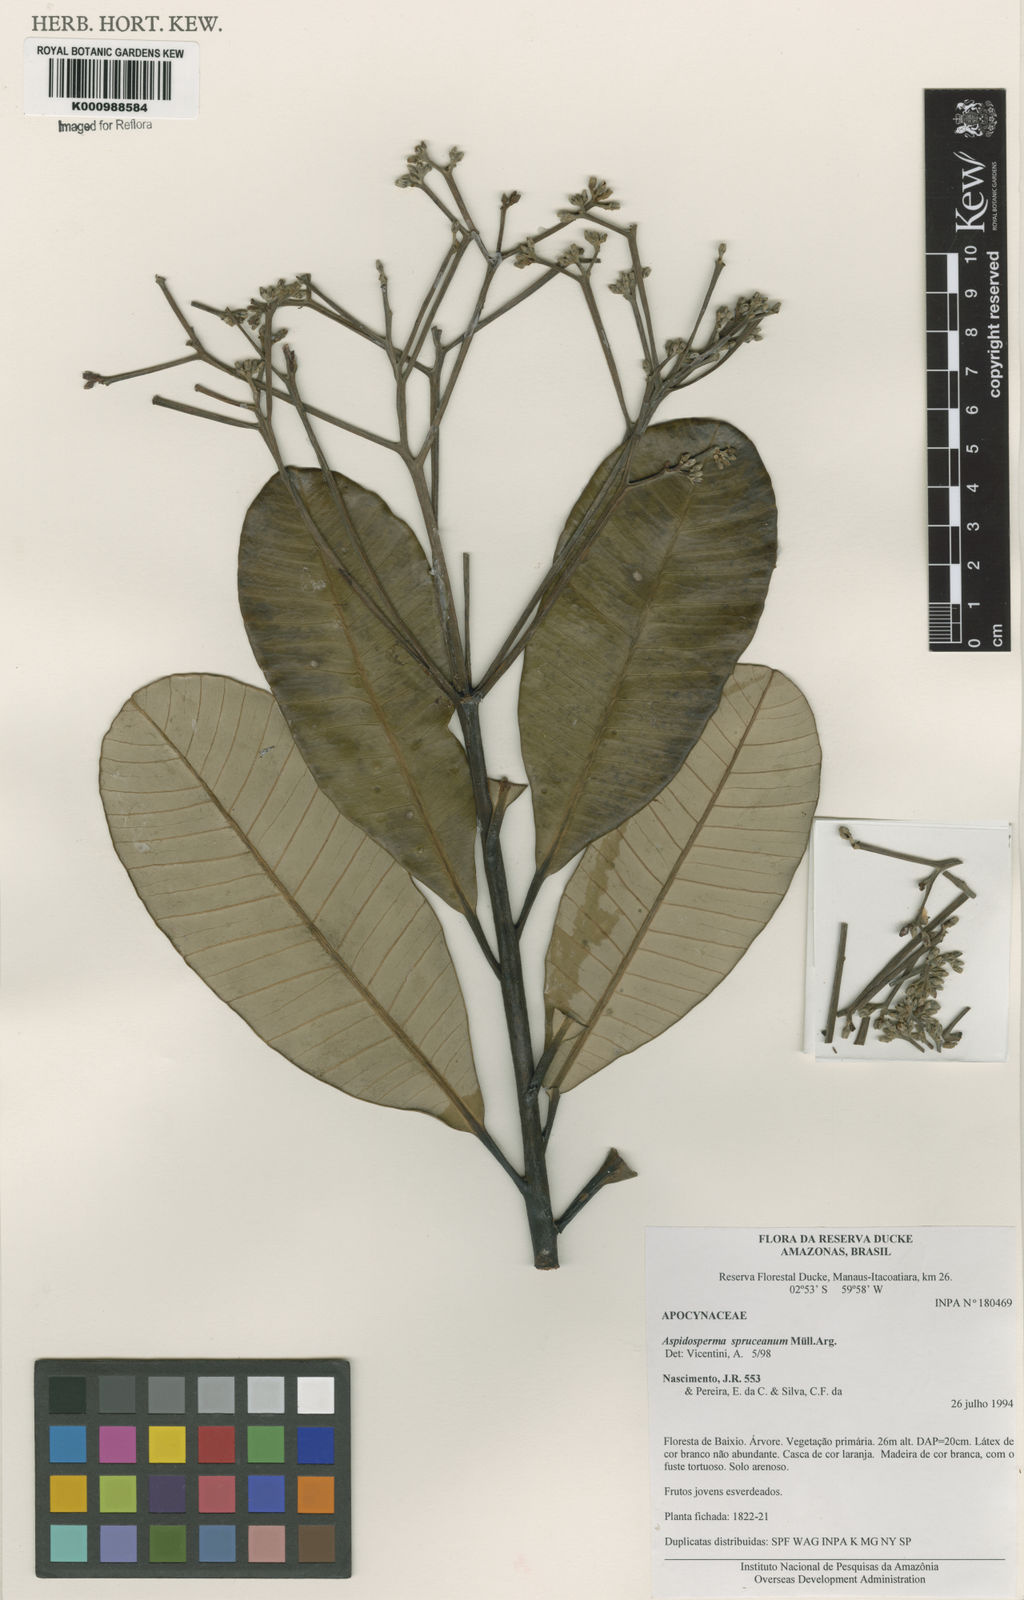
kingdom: Plantae
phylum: Tracheophyta
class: Magnoliopsida
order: Gentianales
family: Apocynaceae
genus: Aspidosperma
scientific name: Aspidosperma
